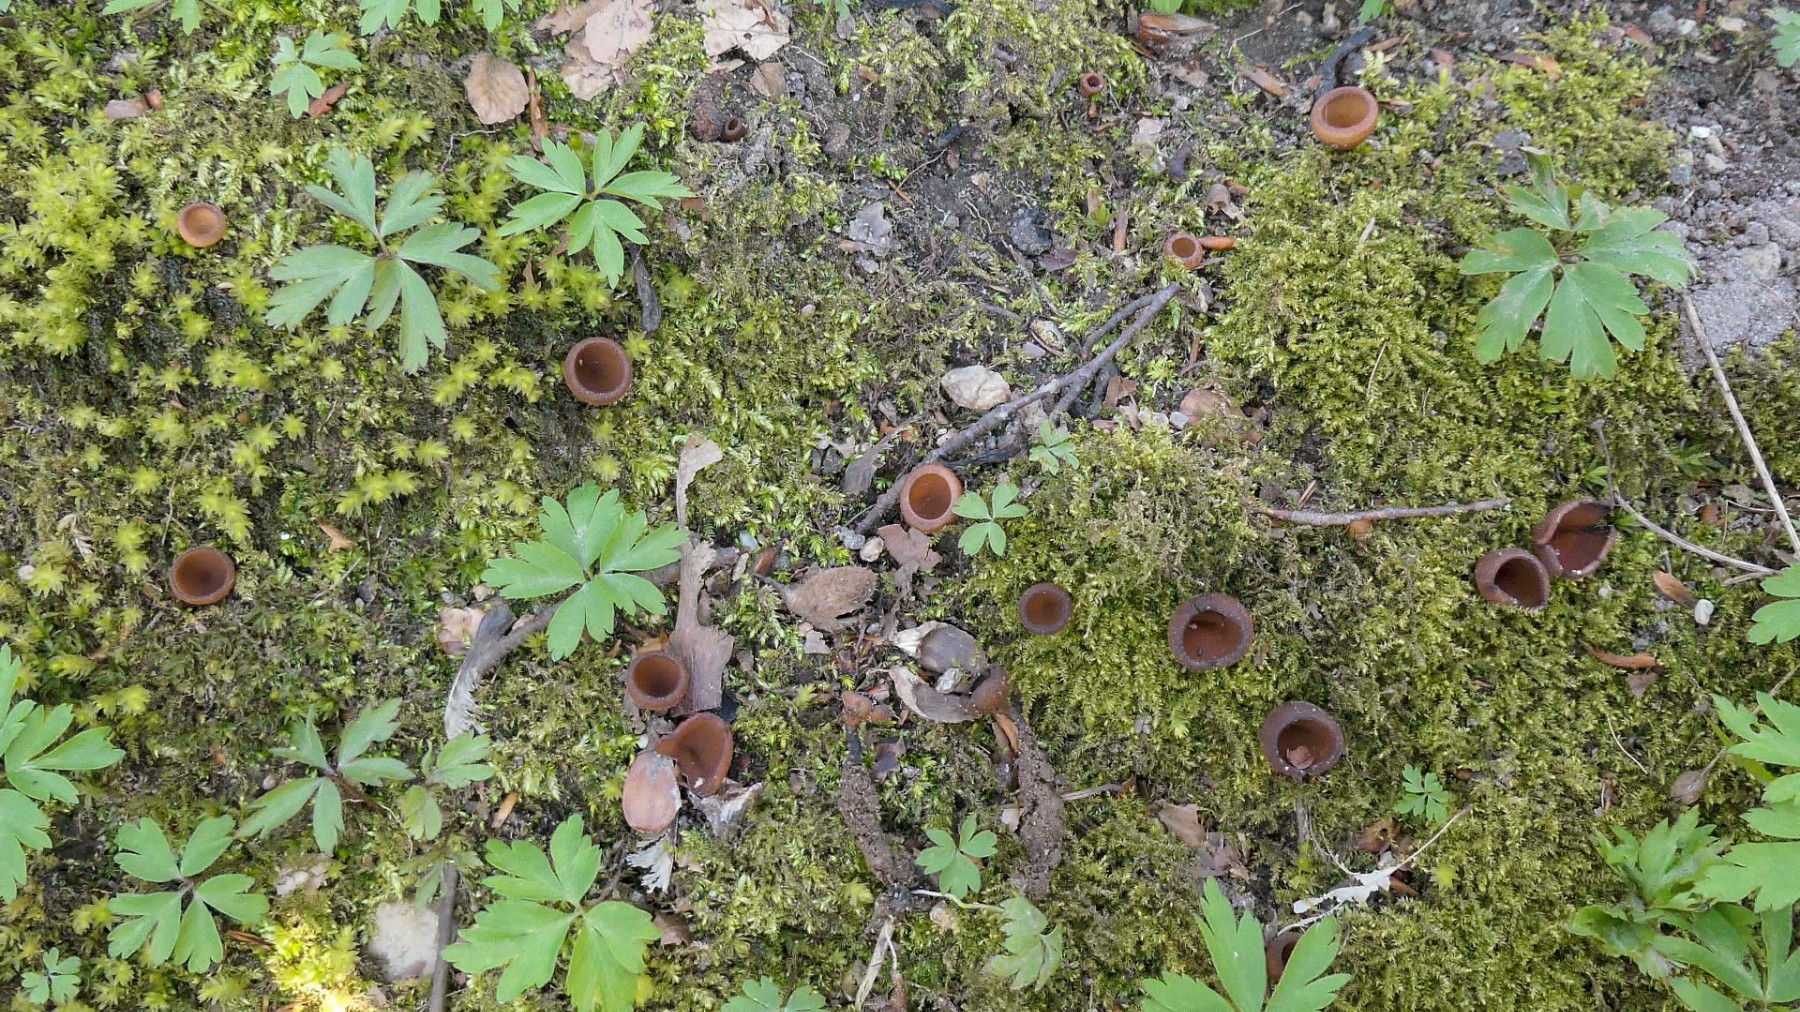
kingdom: Fungi
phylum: Ascomycota
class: Leotiomycetes
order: Helotiales
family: Sclerotiniaceae
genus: Dumontinia
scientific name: Dumontinia tuberosa
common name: anemone-knoldskive
